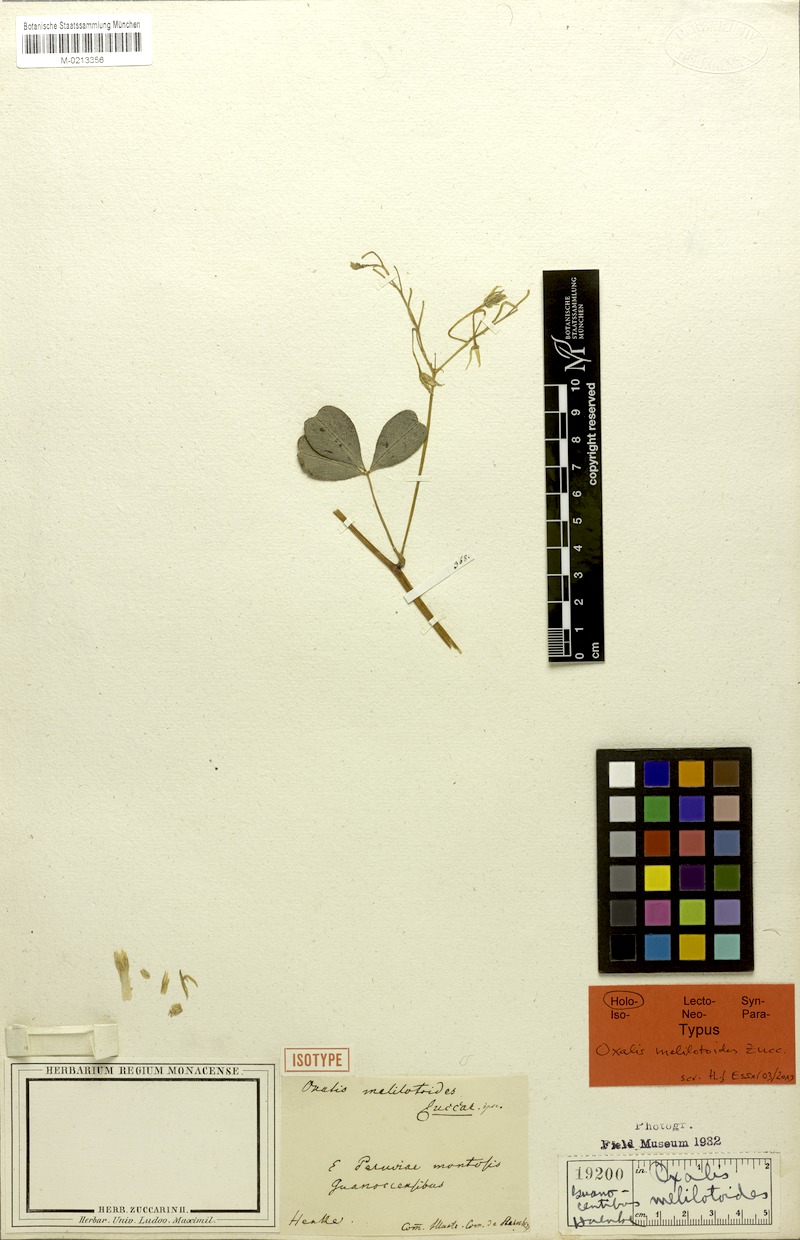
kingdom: Plantae
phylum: Tracheophyta
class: Magnoliopsida
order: Oxalidales
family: Oxalidaceae
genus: Oxalis
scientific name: Oxalis melilotoides
